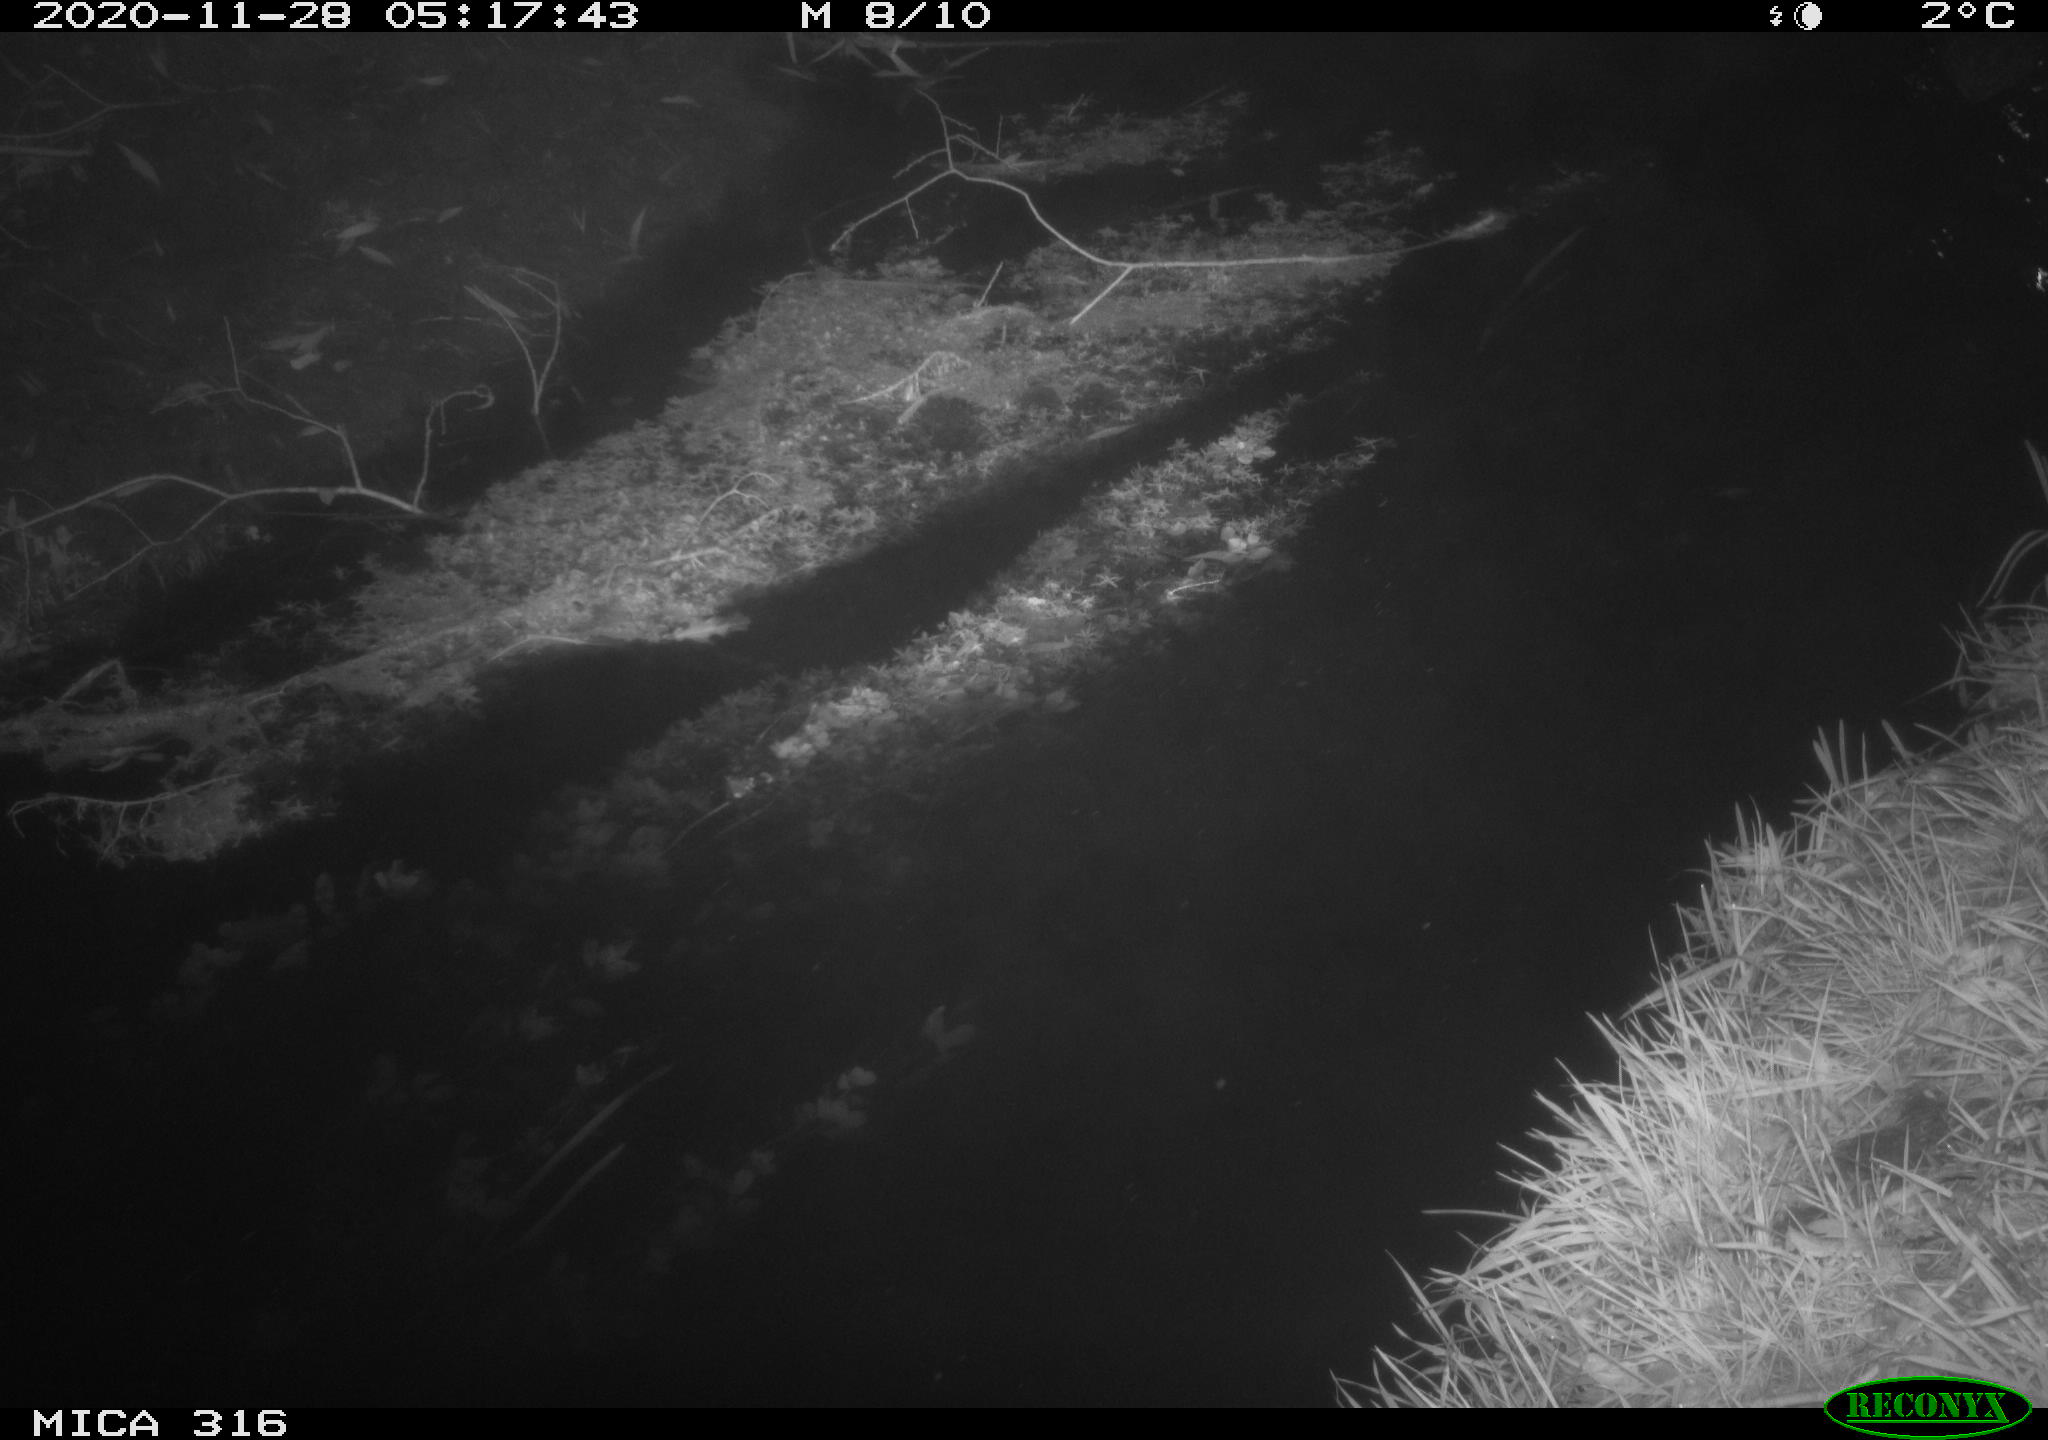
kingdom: Animalia
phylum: Chordata
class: Aves
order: Anseriformes
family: Anatidae
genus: Anas
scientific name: Anas platyrhynchos
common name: Mallard
